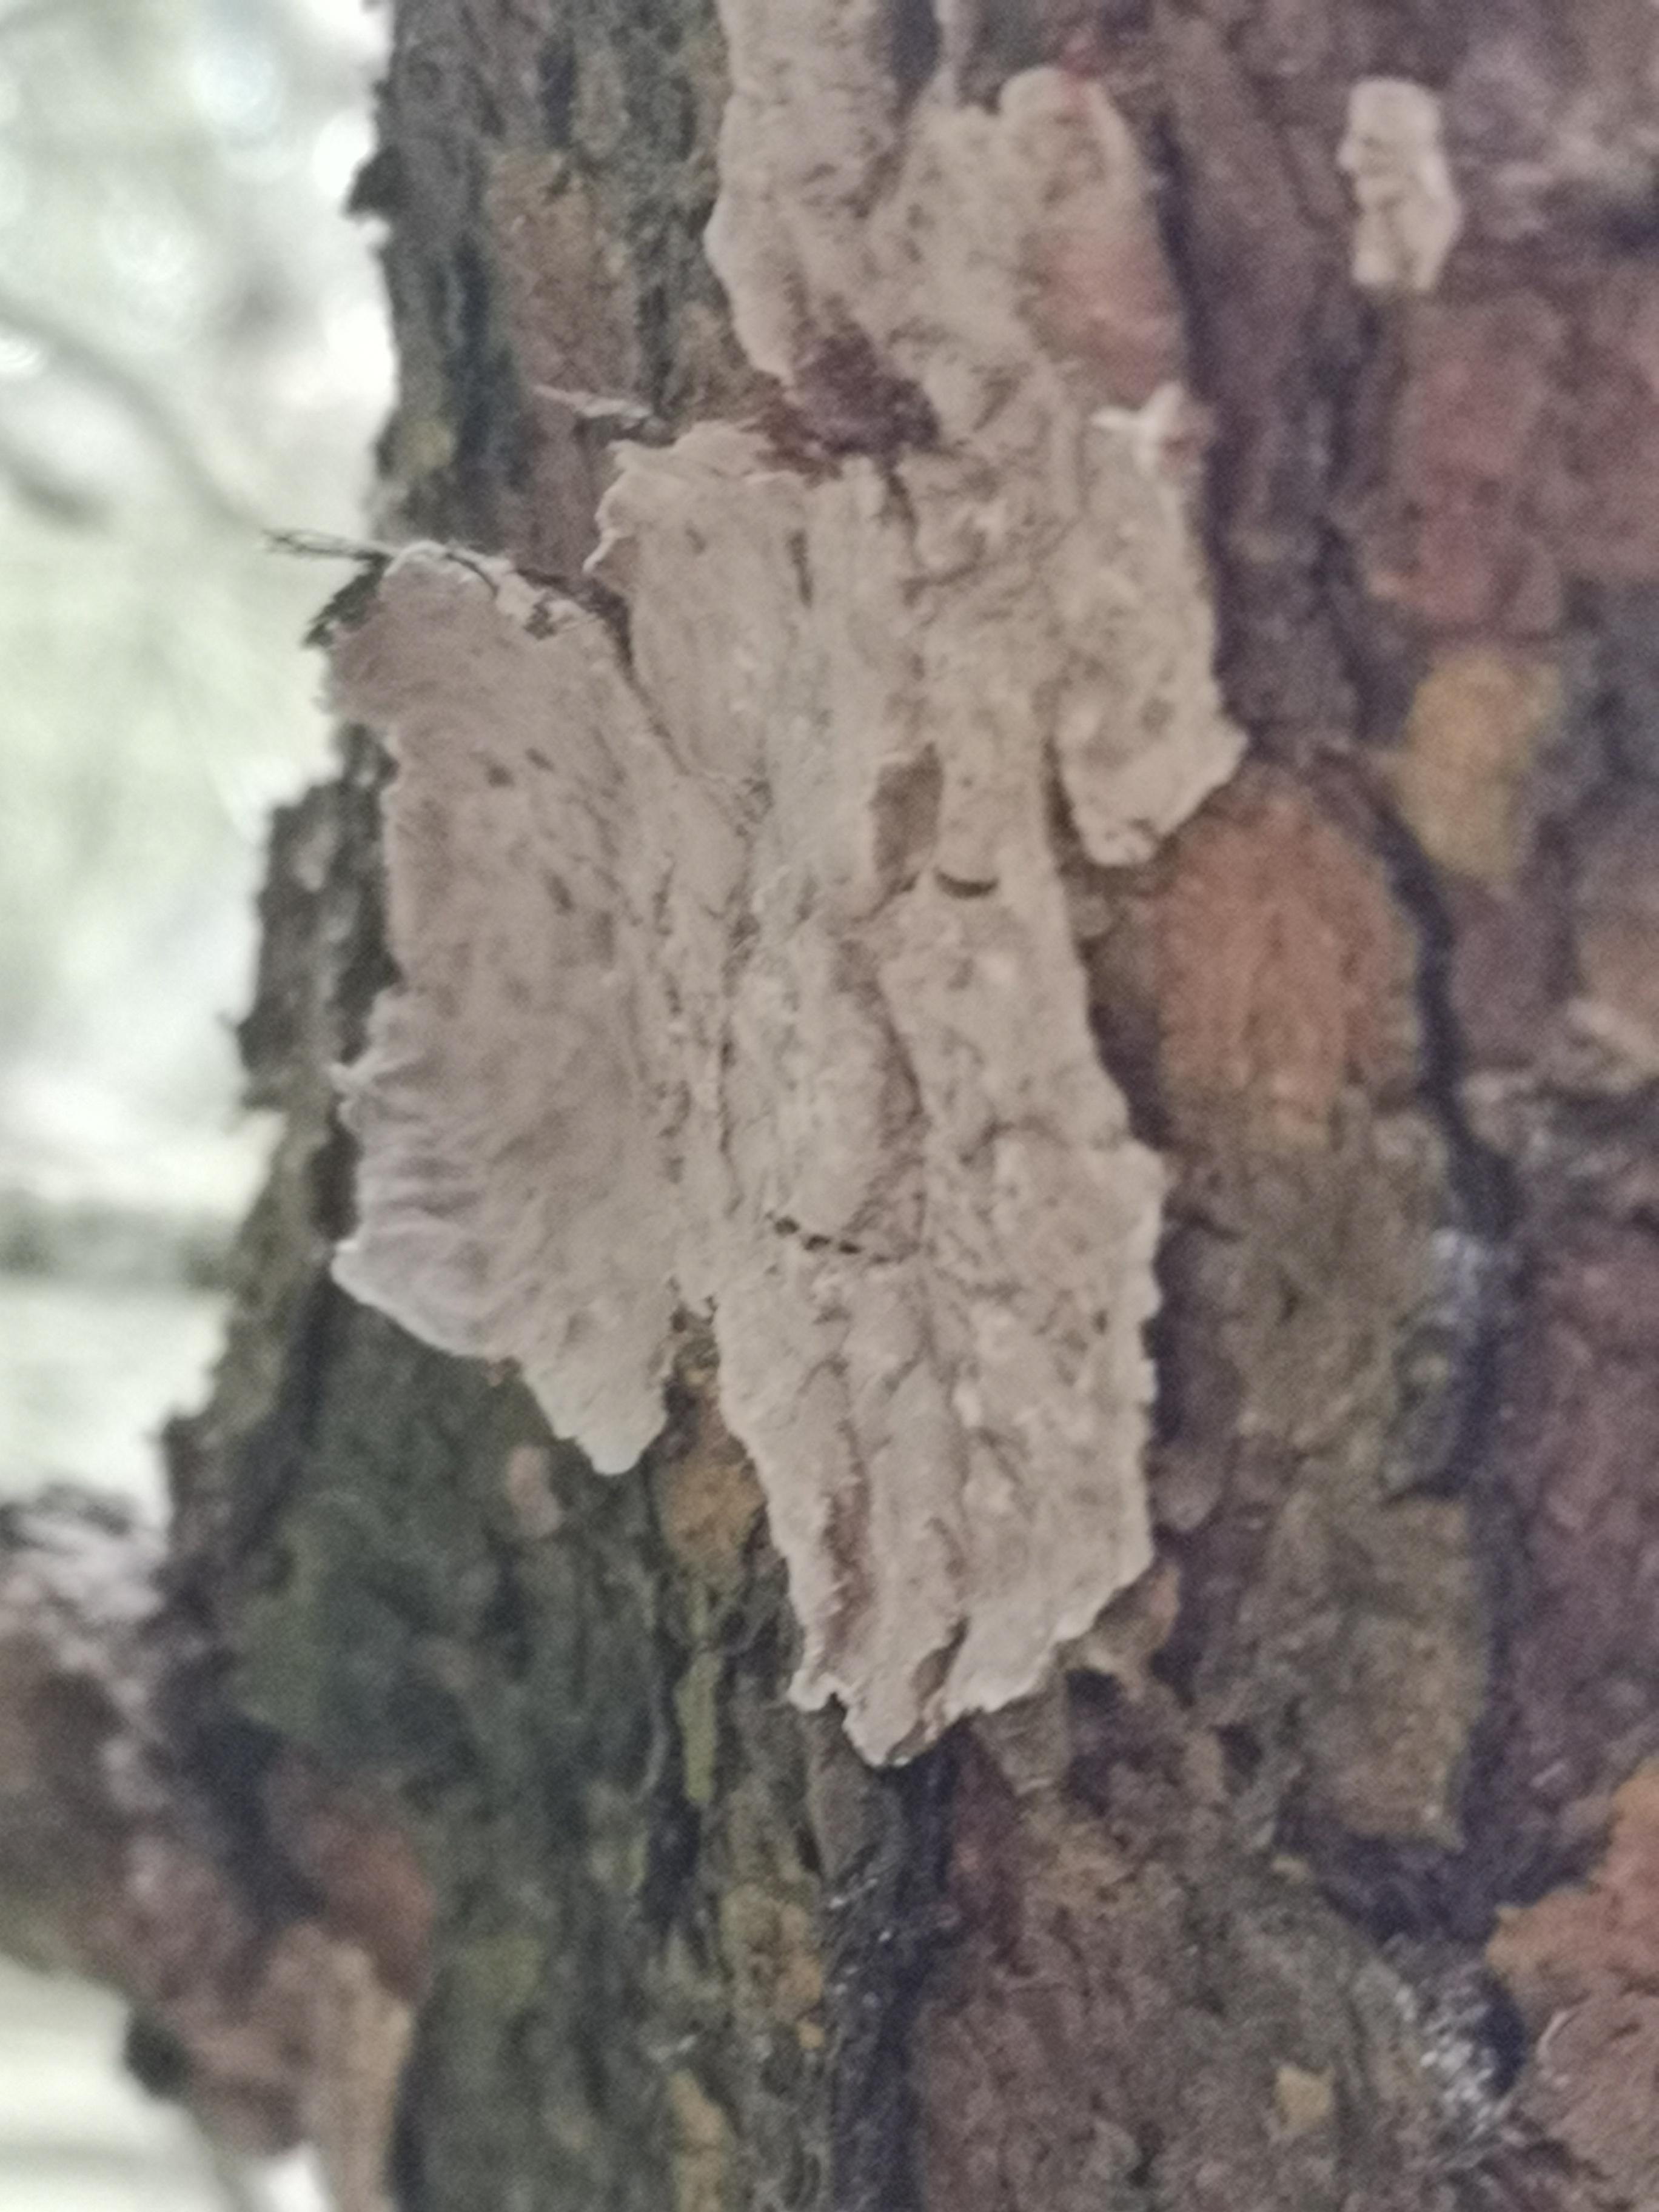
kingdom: Fungi
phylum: Basidiomycota
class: Agaricomycetes
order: Russulales
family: Stereaceae
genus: Stereum
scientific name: Stereum sanguinolentum
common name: blødende lædersvamp
